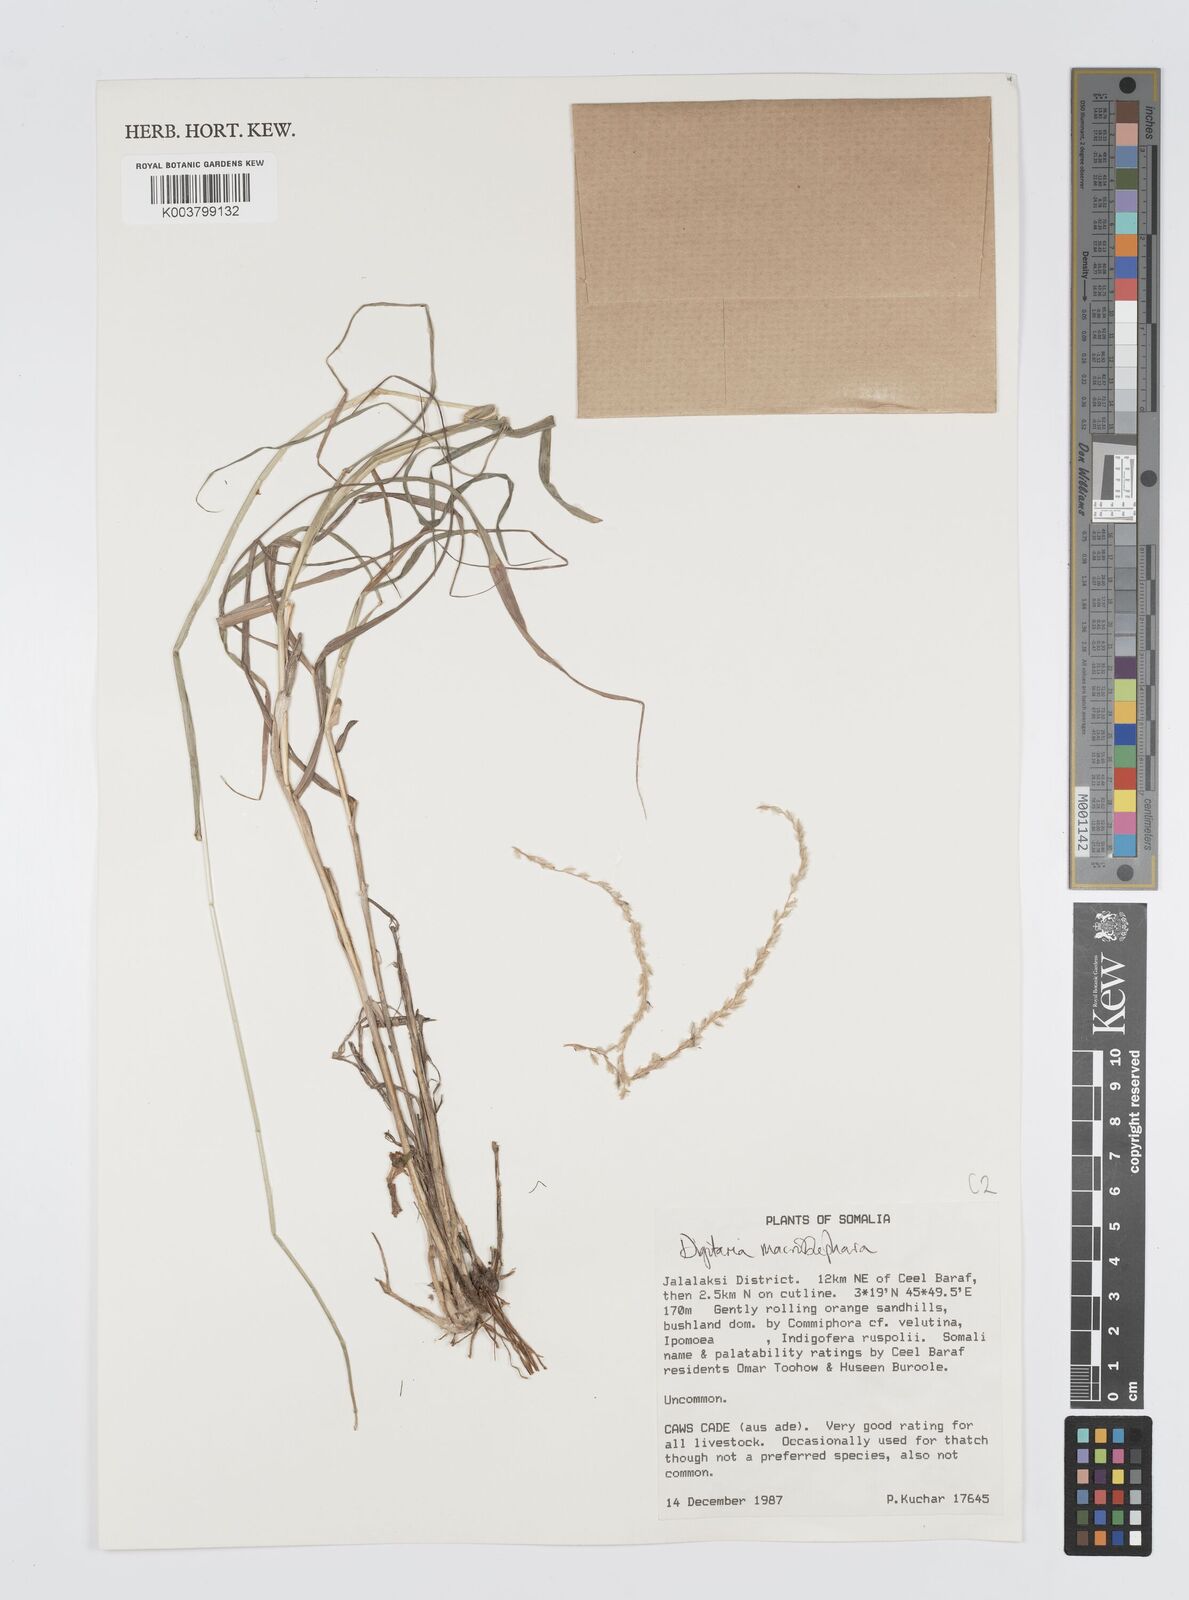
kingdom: Plantae
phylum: Tracheophyta
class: Liliopsida
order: Poales
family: Poaceae
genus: Digitaria
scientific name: Digitaria macroblephara
